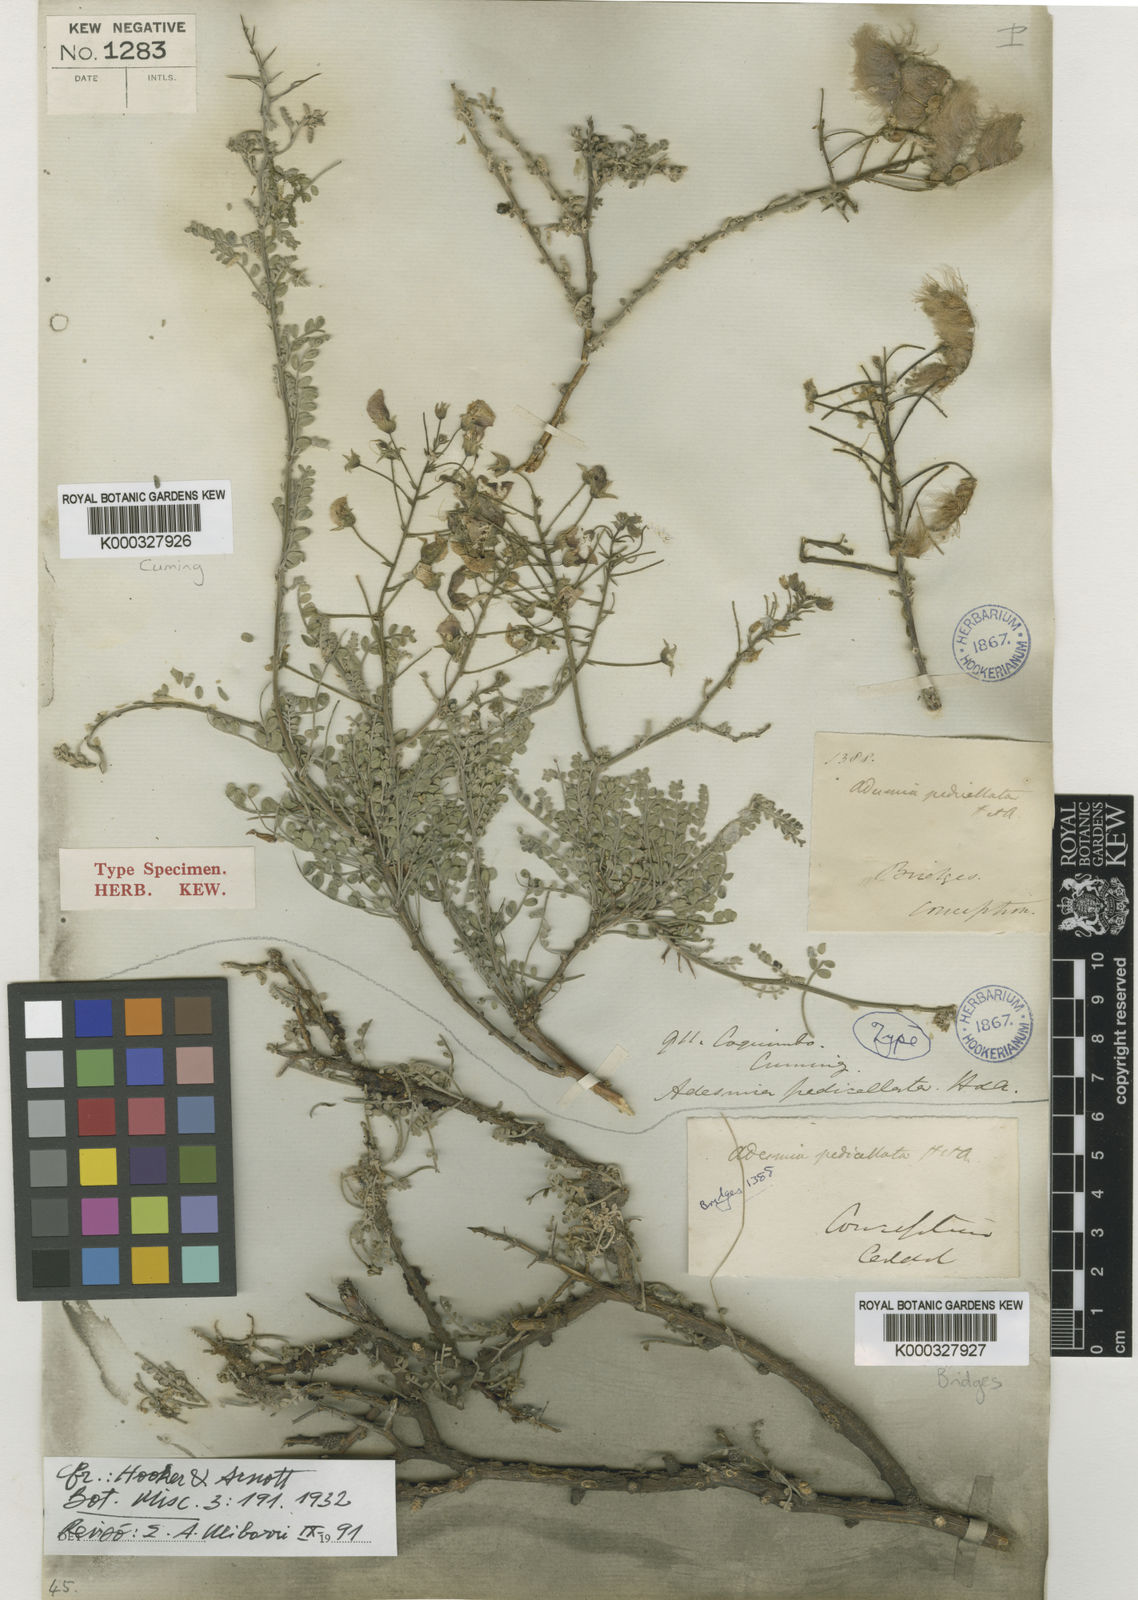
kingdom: Plantae
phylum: Tracheophyta
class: Magnoliopsida
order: Fabales
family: Fabaceae
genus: Adesmia
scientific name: Adesmia pedicellata
